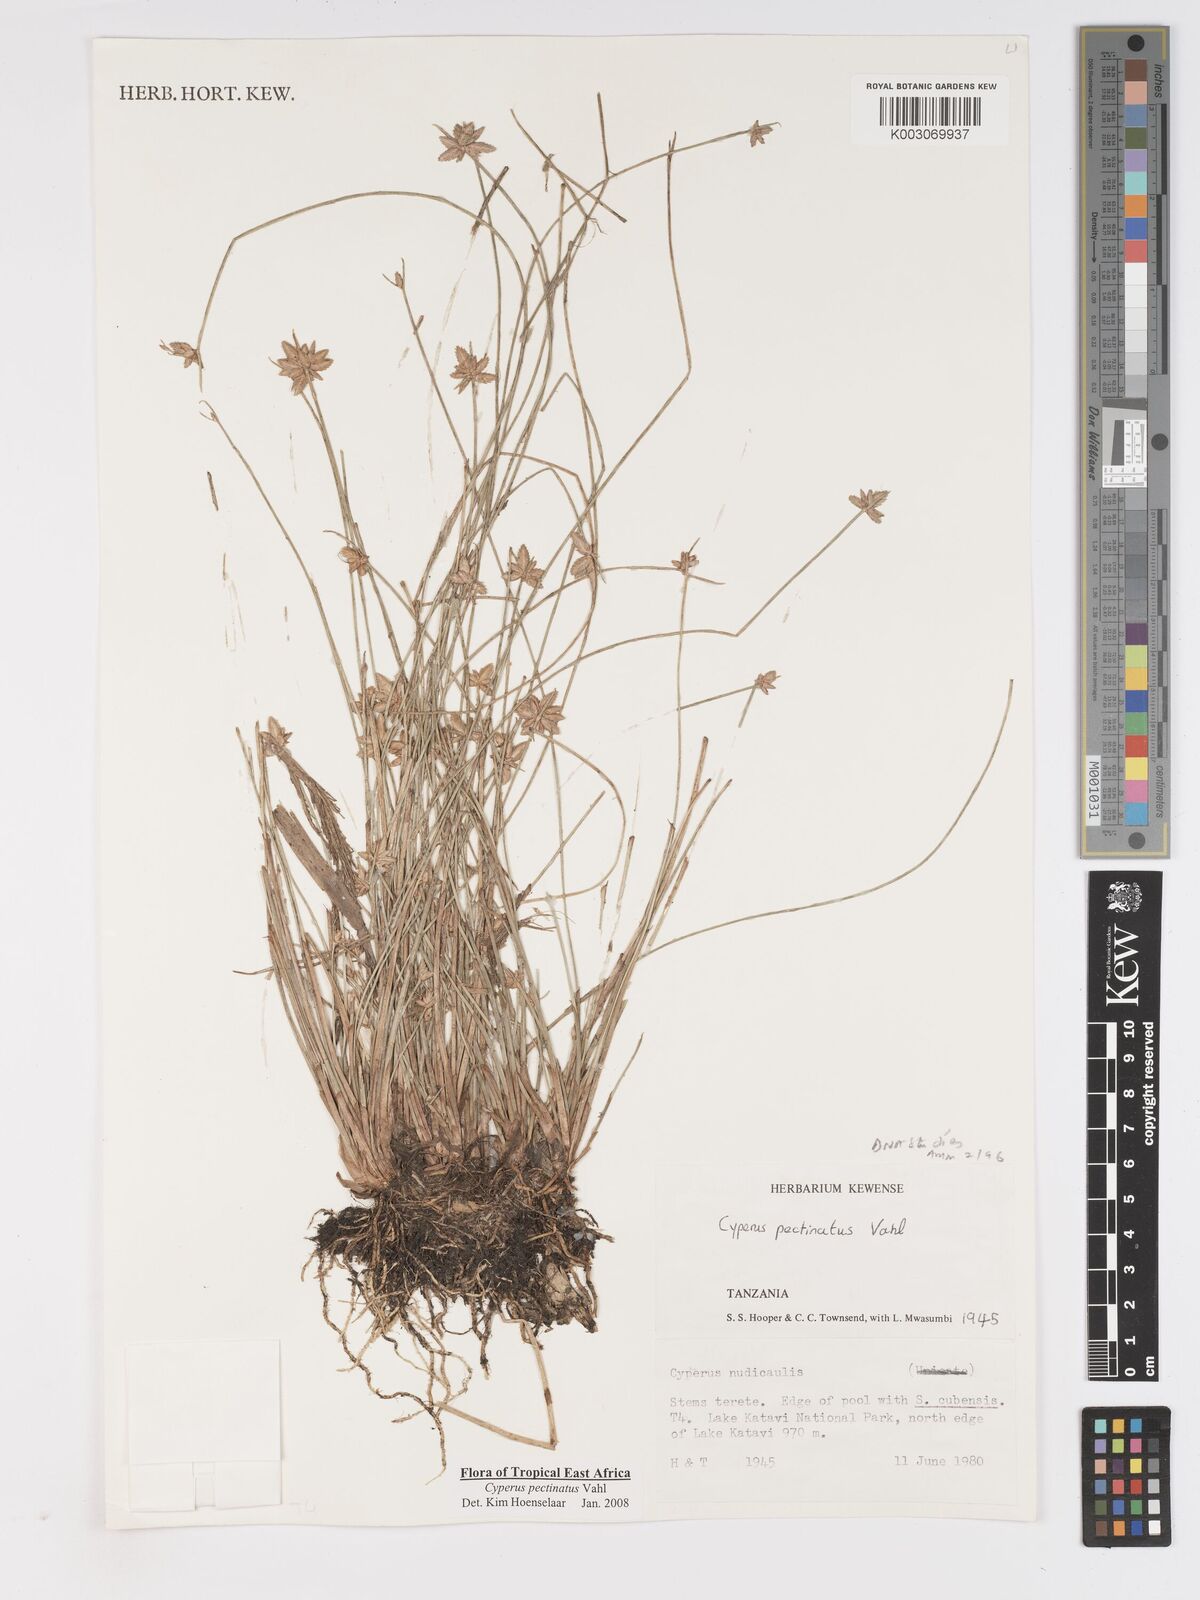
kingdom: Plantae
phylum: Tracheophyta
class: Liliopsida
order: Poales
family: Cyperaceae
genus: Cyperus
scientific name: Cyperus pectinatus
